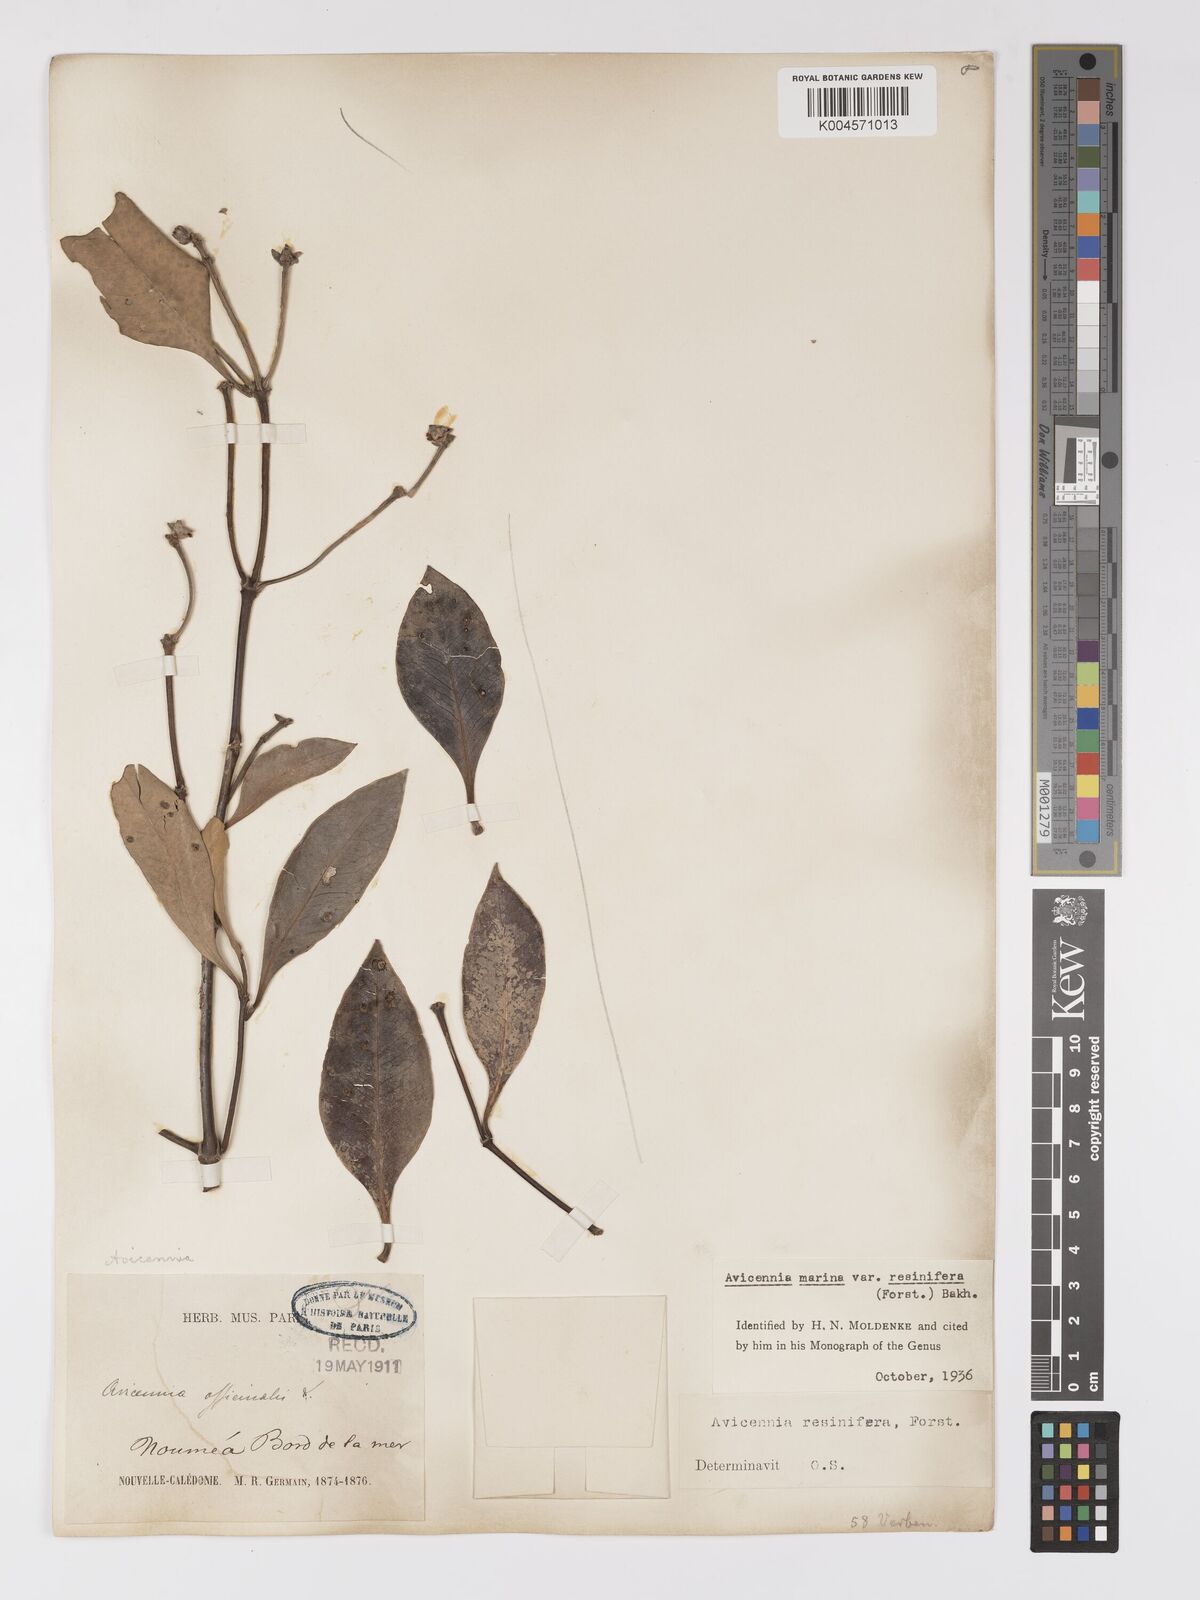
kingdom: Plantae
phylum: Tracheophyta
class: Magnoliopsida
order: Lamiales
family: Acanthaceae
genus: Avicennia
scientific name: Avicennia marina
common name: Gray mangrove
